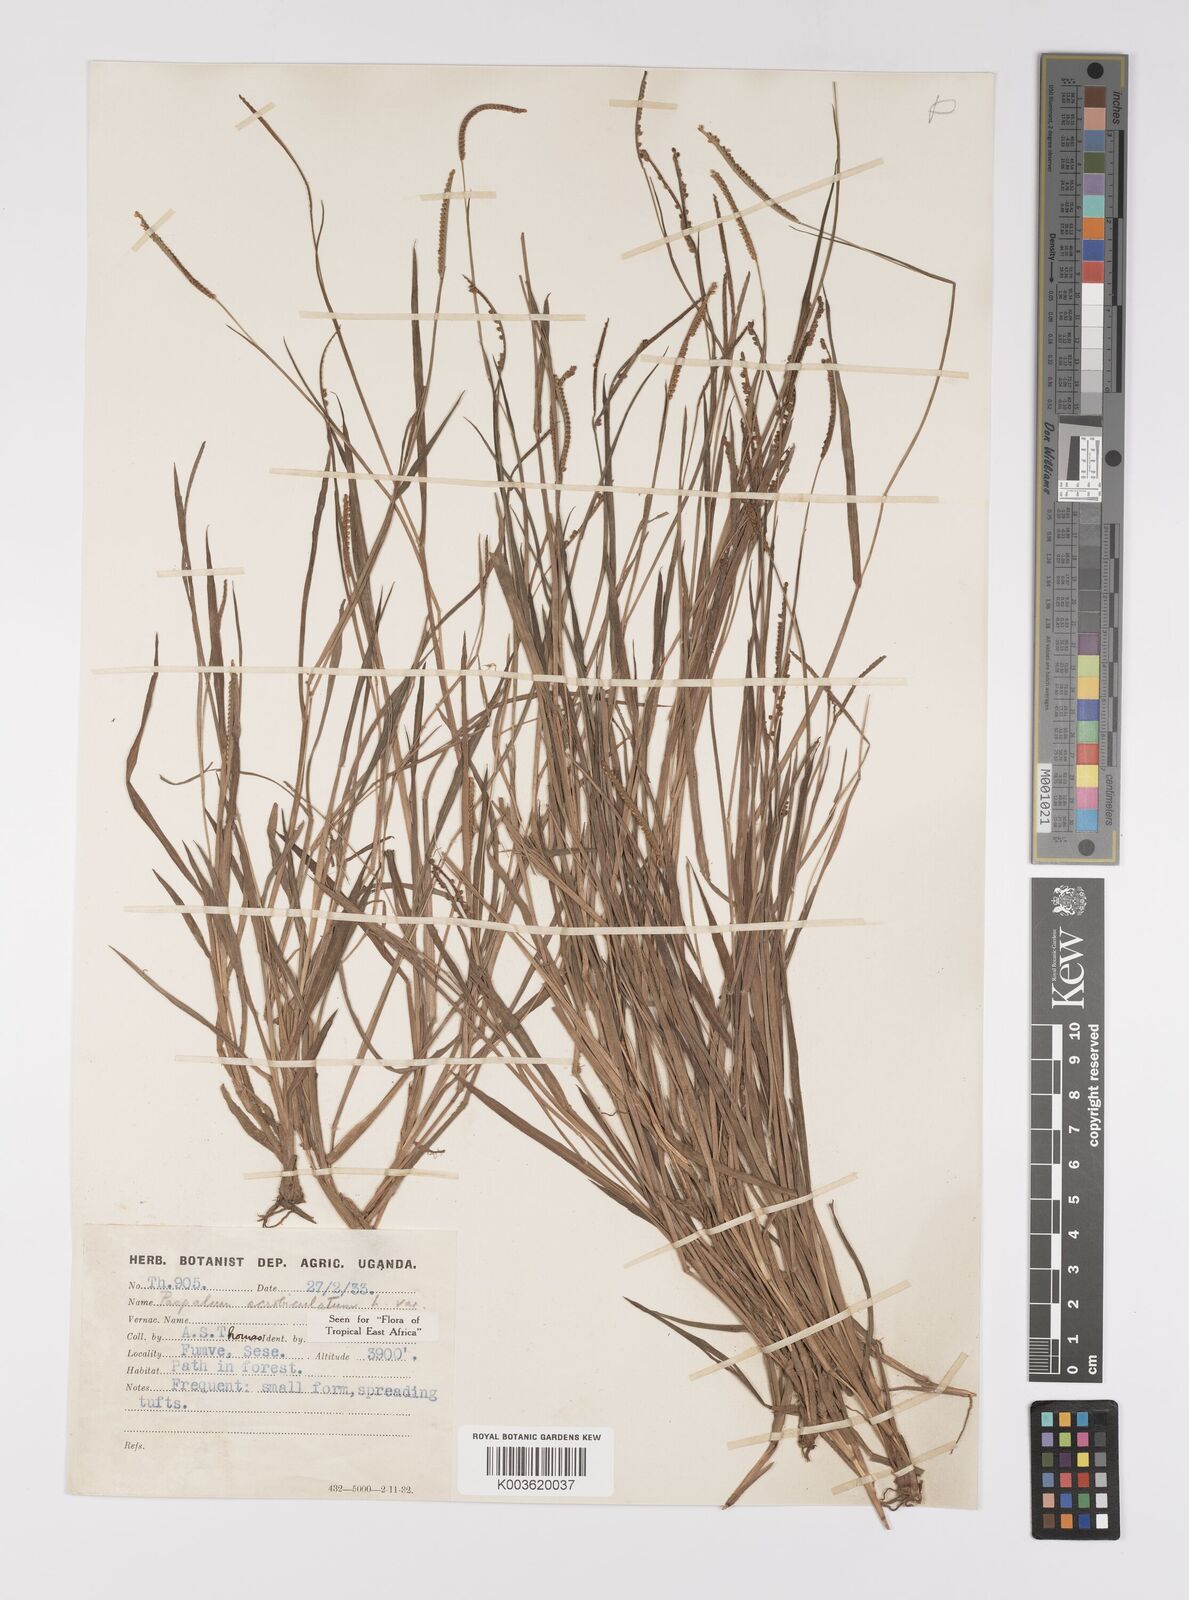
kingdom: Plantae
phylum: Tracheophyta
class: Liliopsida
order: Poales
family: Poaceae
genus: Paspalum
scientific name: Paspalum scrobiculatum
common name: Kodo millet
